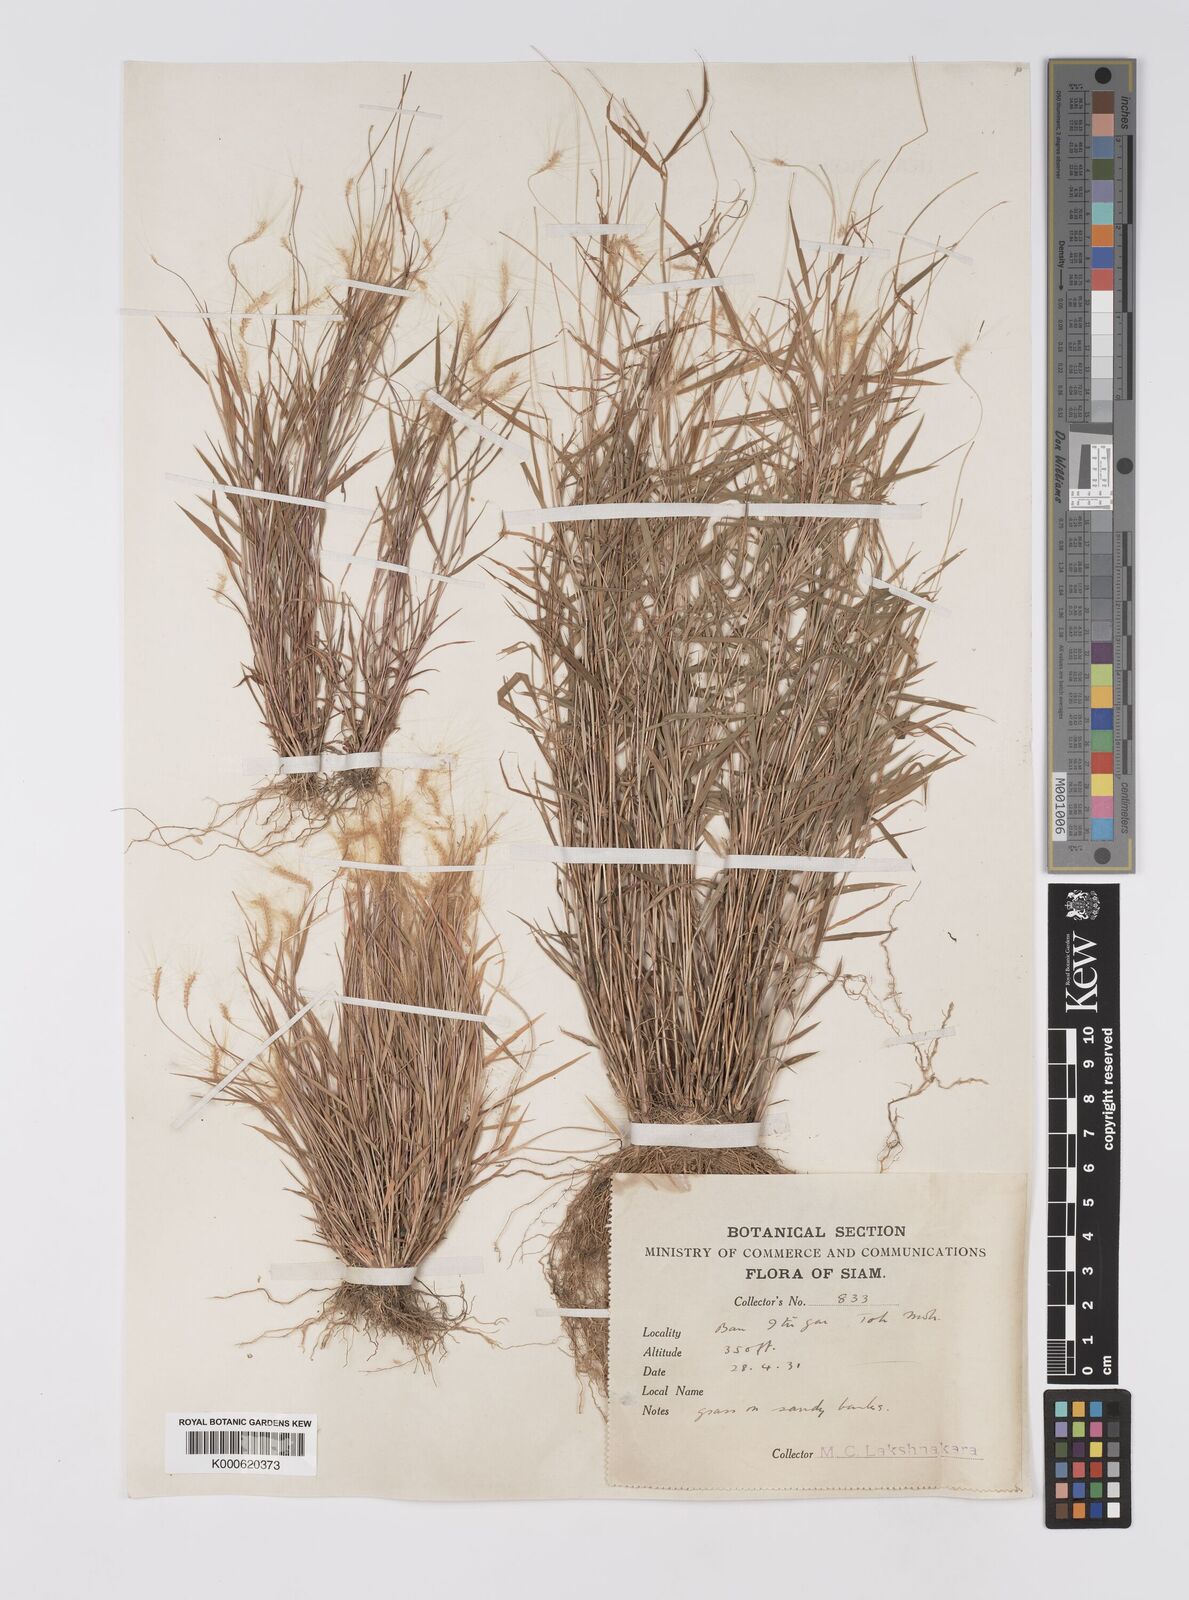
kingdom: Plantae
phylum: Tracheophyta
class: Liliopsida
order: Poales
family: Poaceae
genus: Pogonatherum
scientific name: Pogonatherum crinitum
